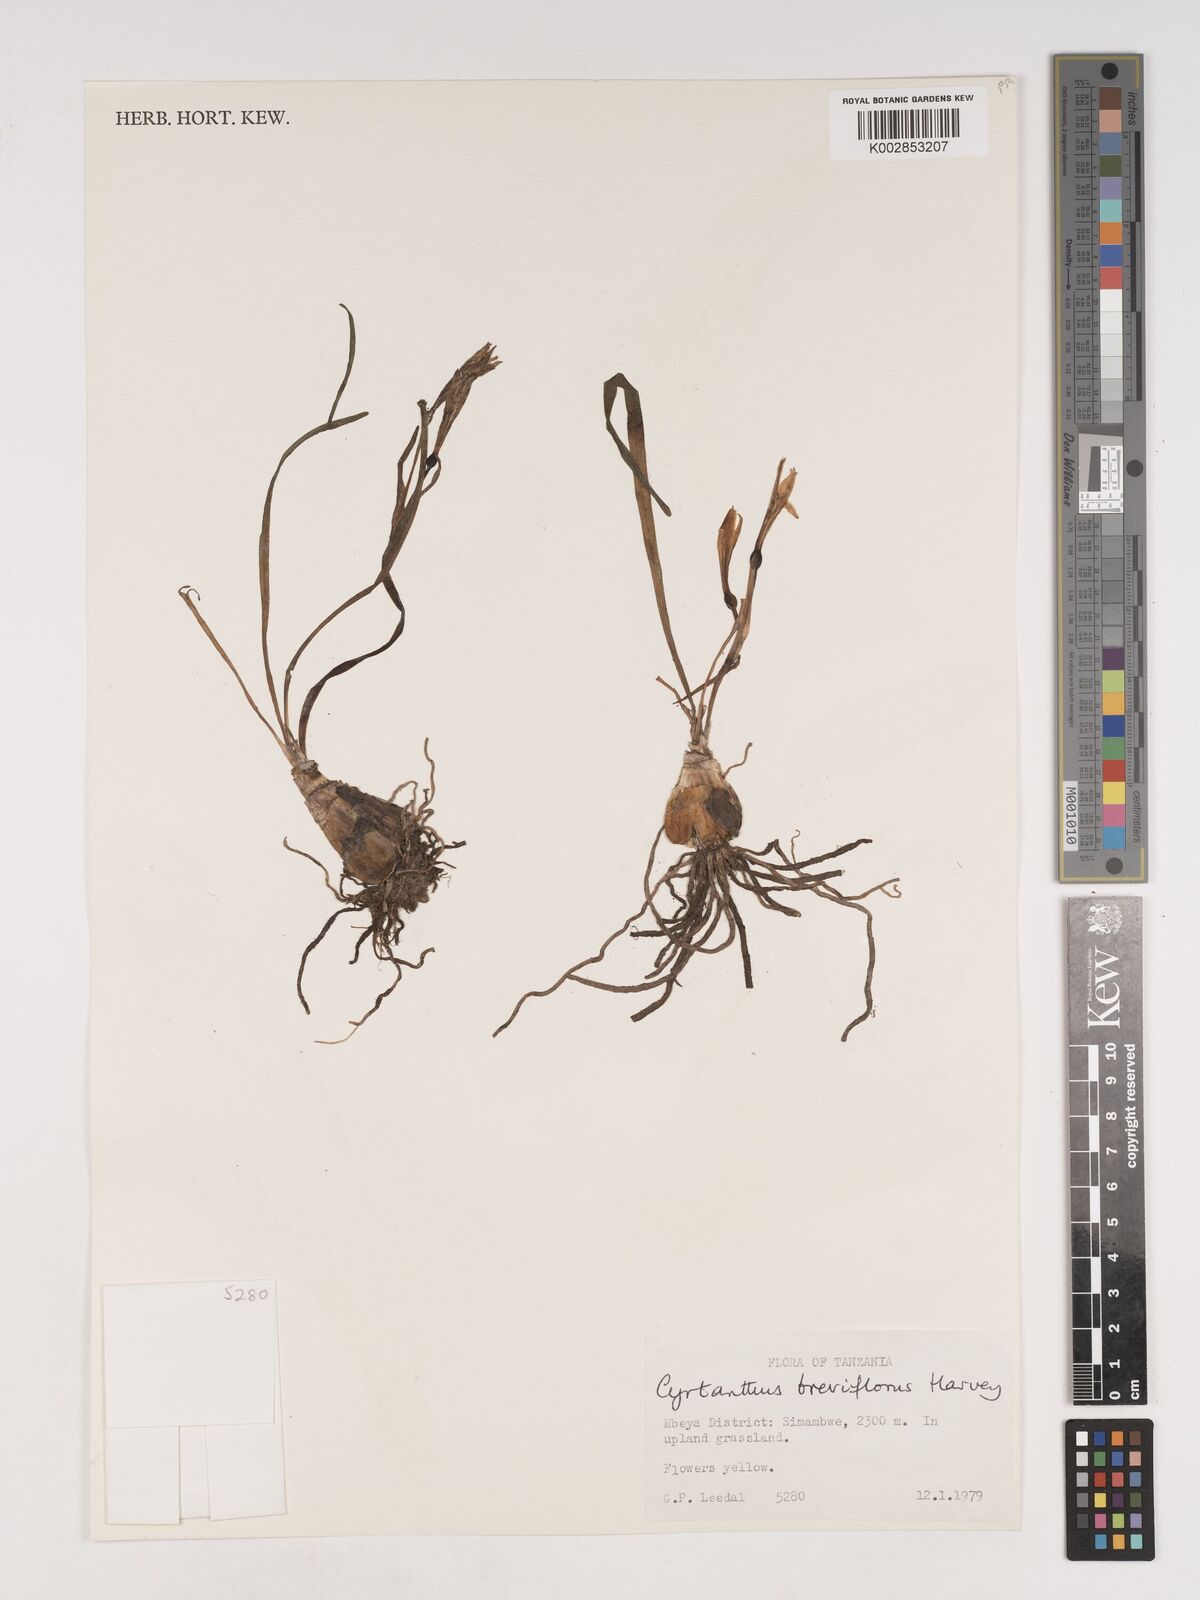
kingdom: Plantae
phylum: Tracheophyta
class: Liliopsida
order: Asparagales
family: Amaryllidaceae
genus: Cyrtanthus
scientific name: Cyrtanthus breviflorus
